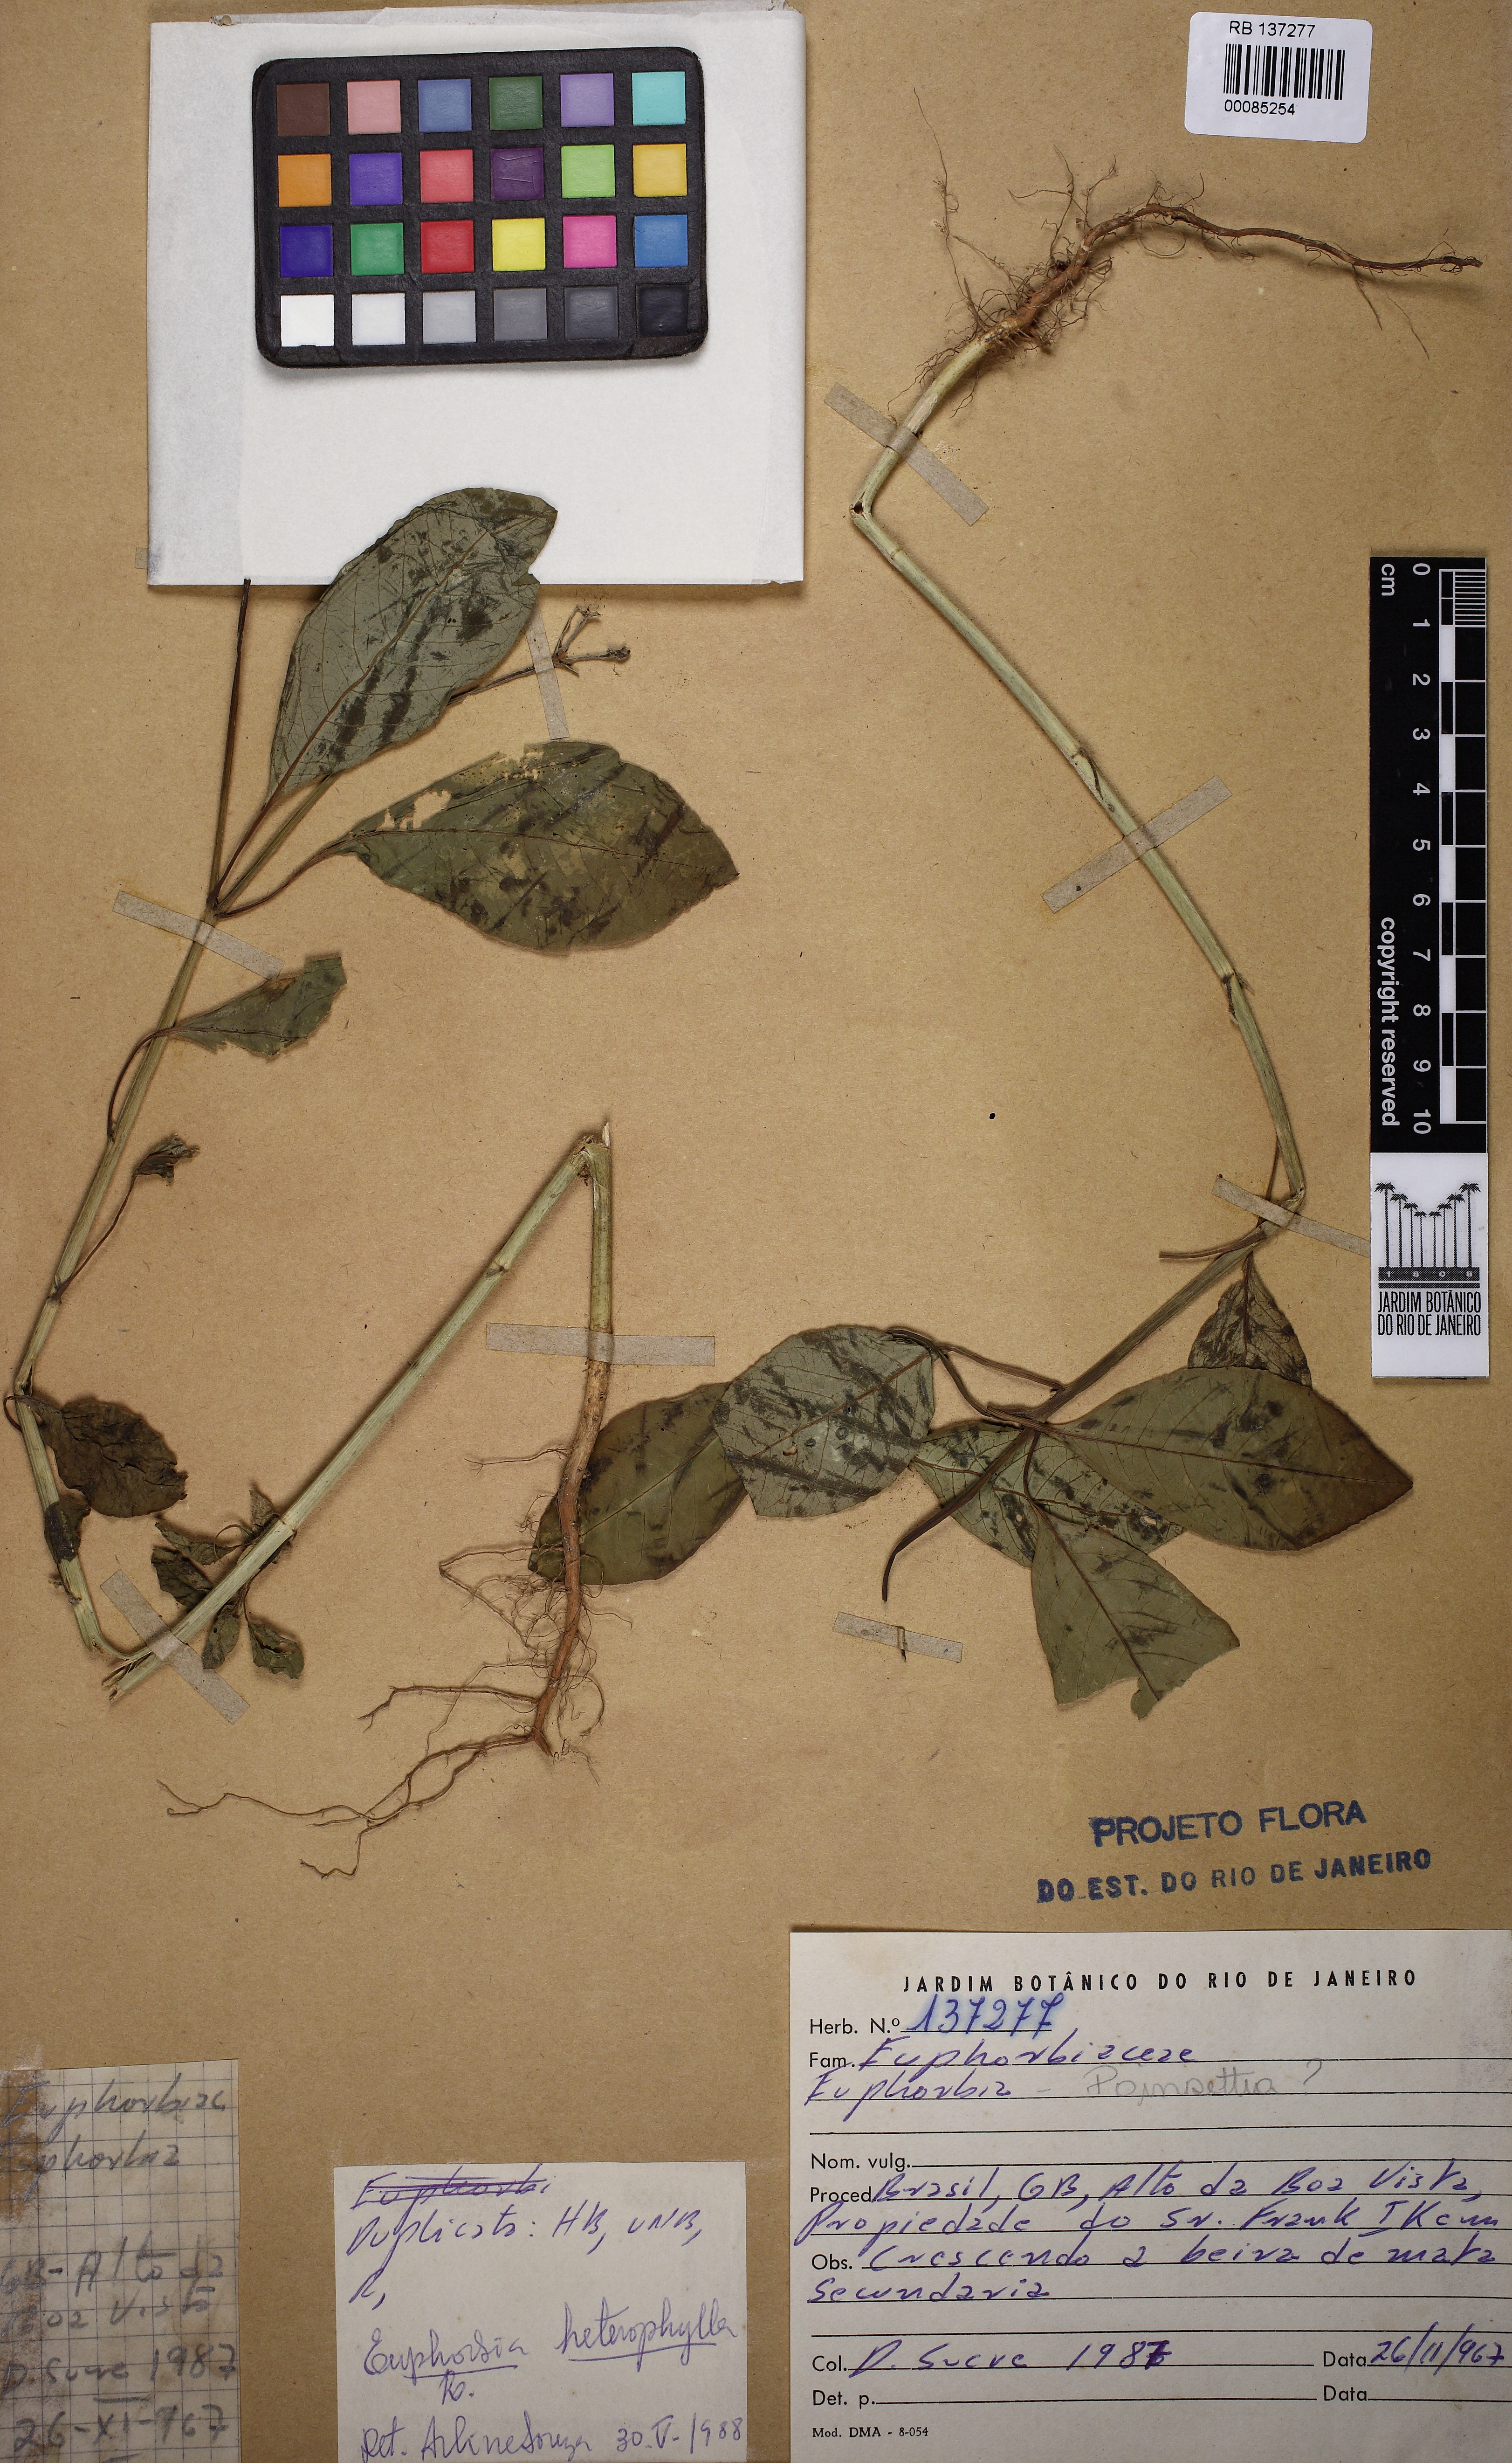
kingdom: Plantae
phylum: Tracheophyta
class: Magnoliopsida
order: Malpighiales
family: Euphorbiaceae
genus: Euphorbia
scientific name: Euphorbia heterophylla
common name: Mexican fireplant
